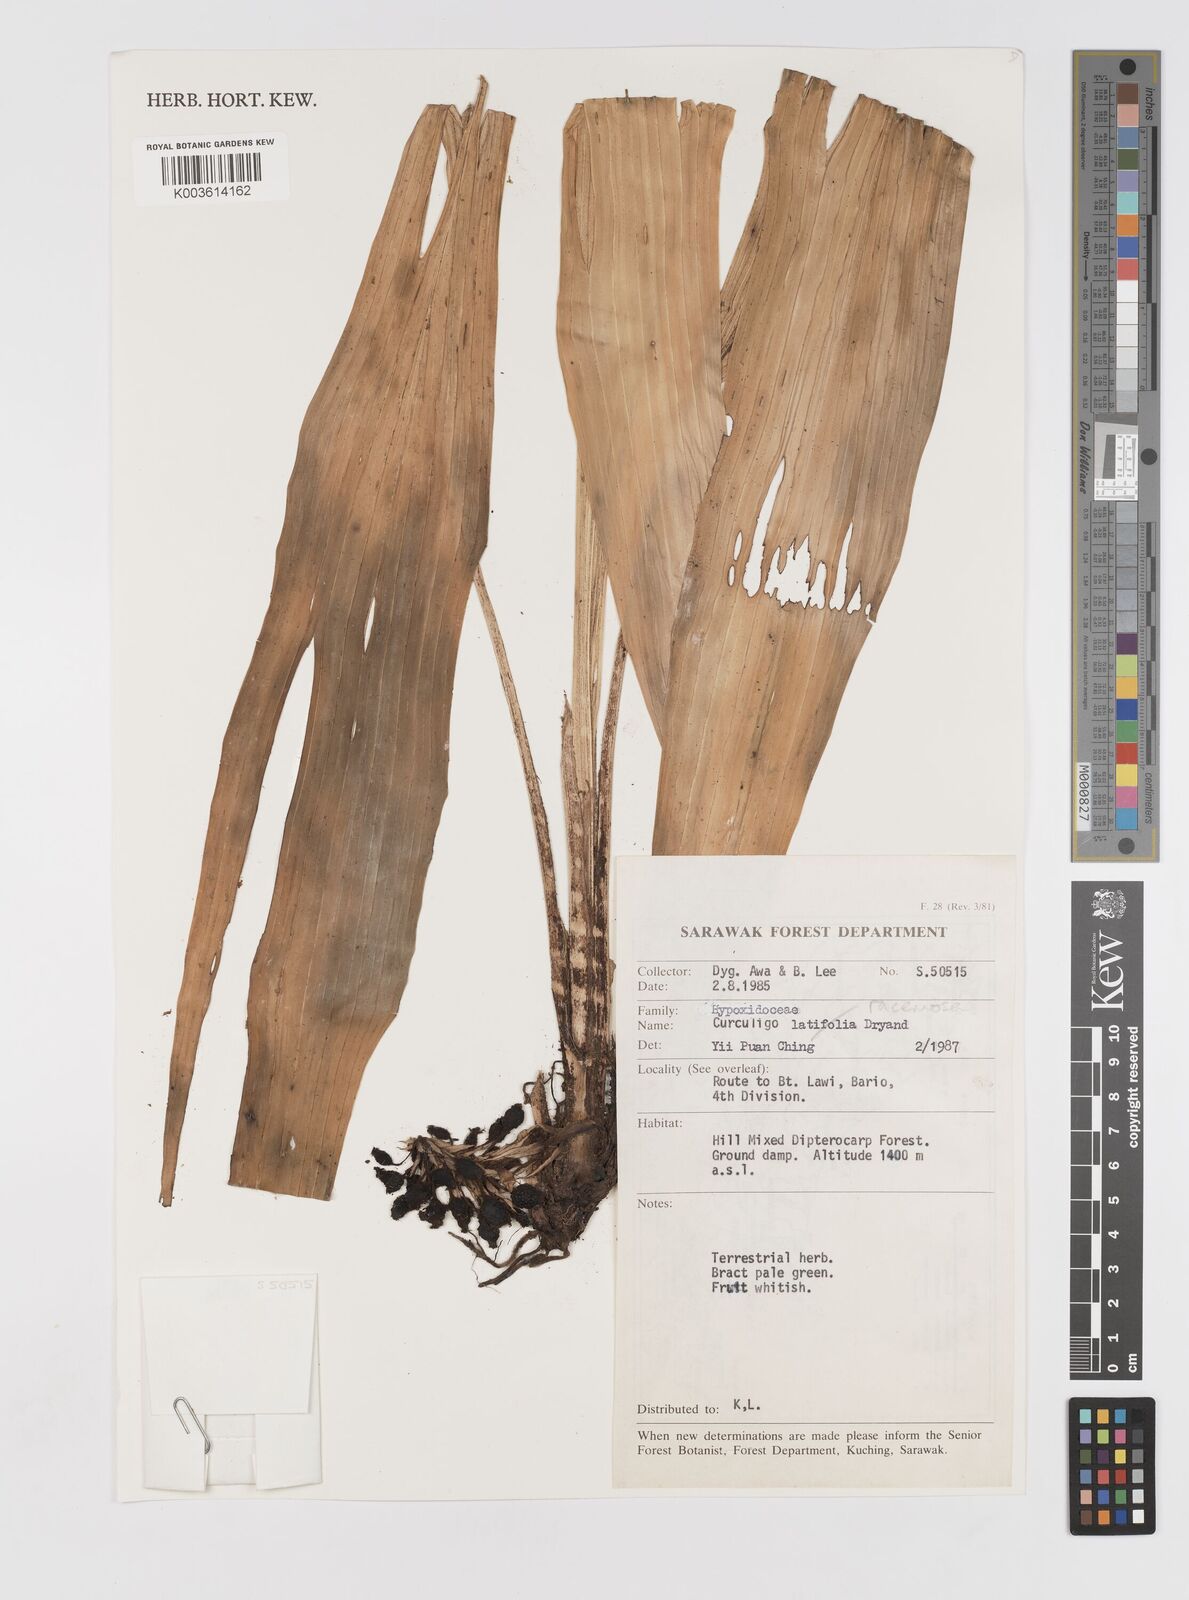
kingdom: Plantae
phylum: Tracheophyta
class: Liliopsida
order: Asparagales
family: Hypoxidaceae
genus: Curculigo
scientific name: Curculigo racemosa
